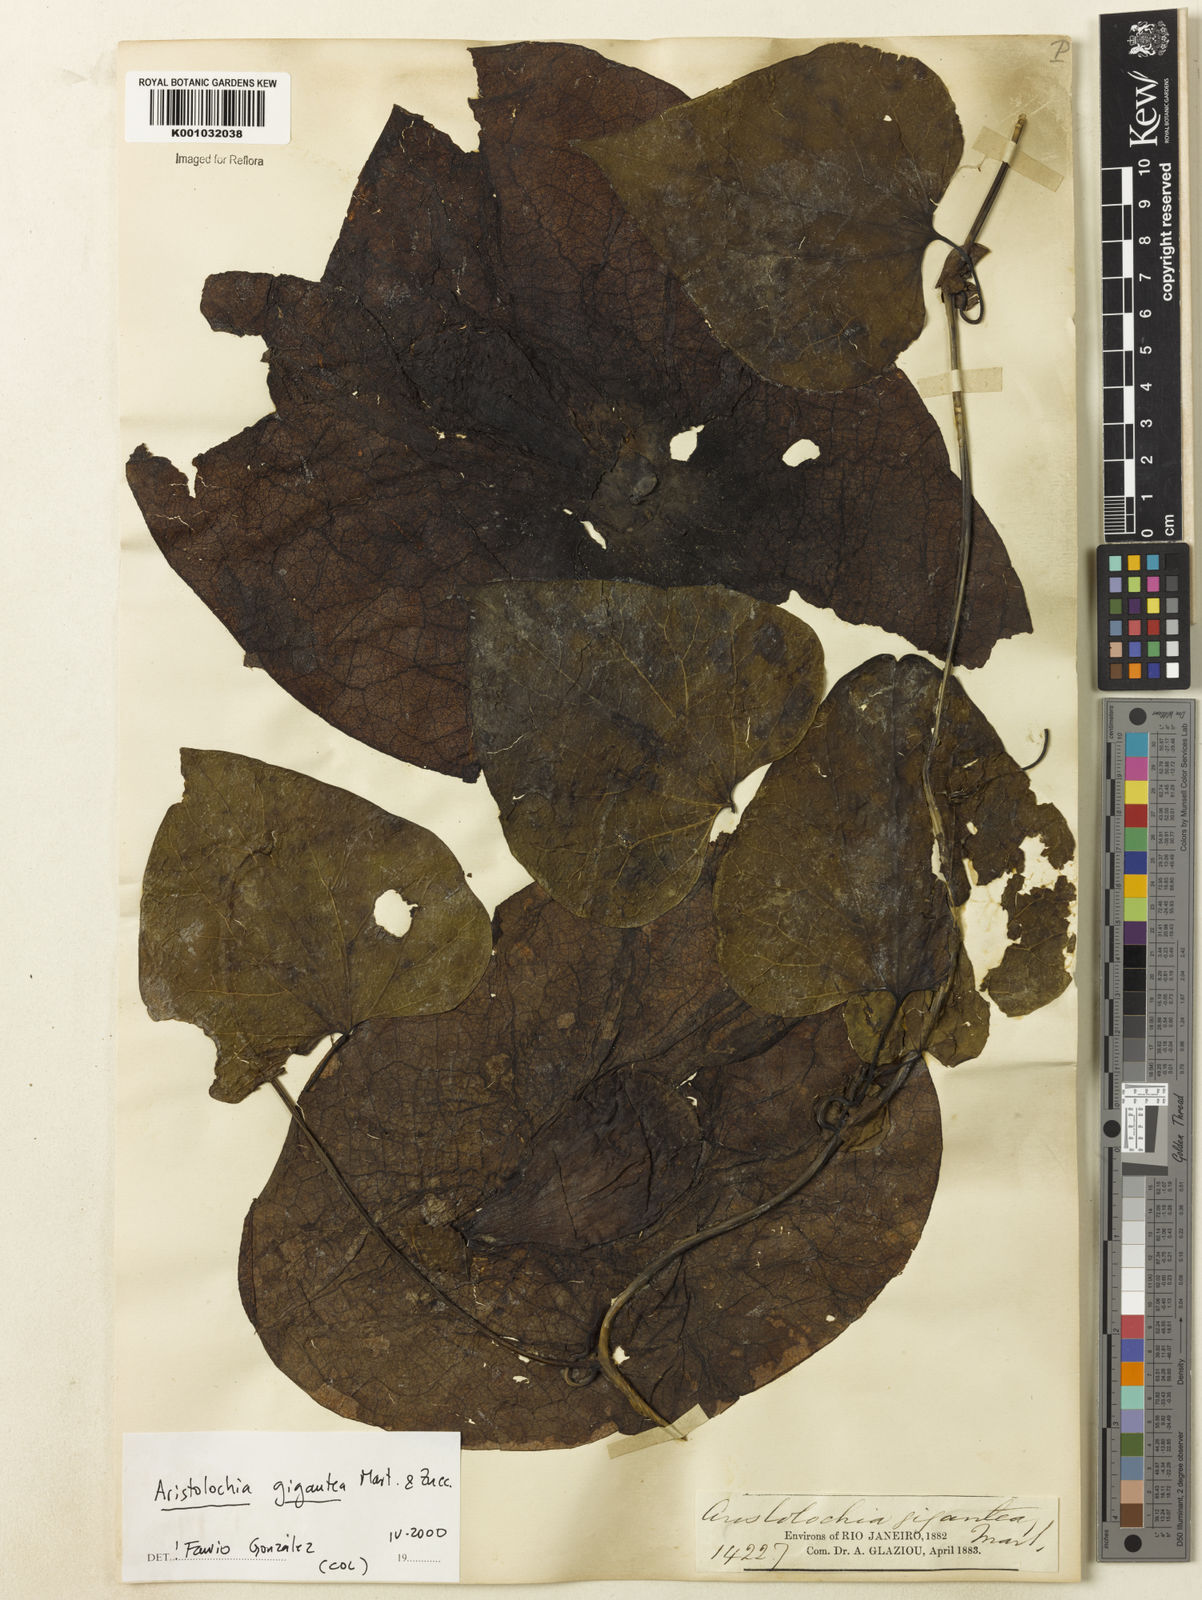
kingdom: Plantae
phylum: Tracheophyta
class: Magnoliopsida
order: Piperales
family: Aristolochiaceae
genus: Aristolochia
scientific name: Aristolochia gigantea
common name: Duckflower
